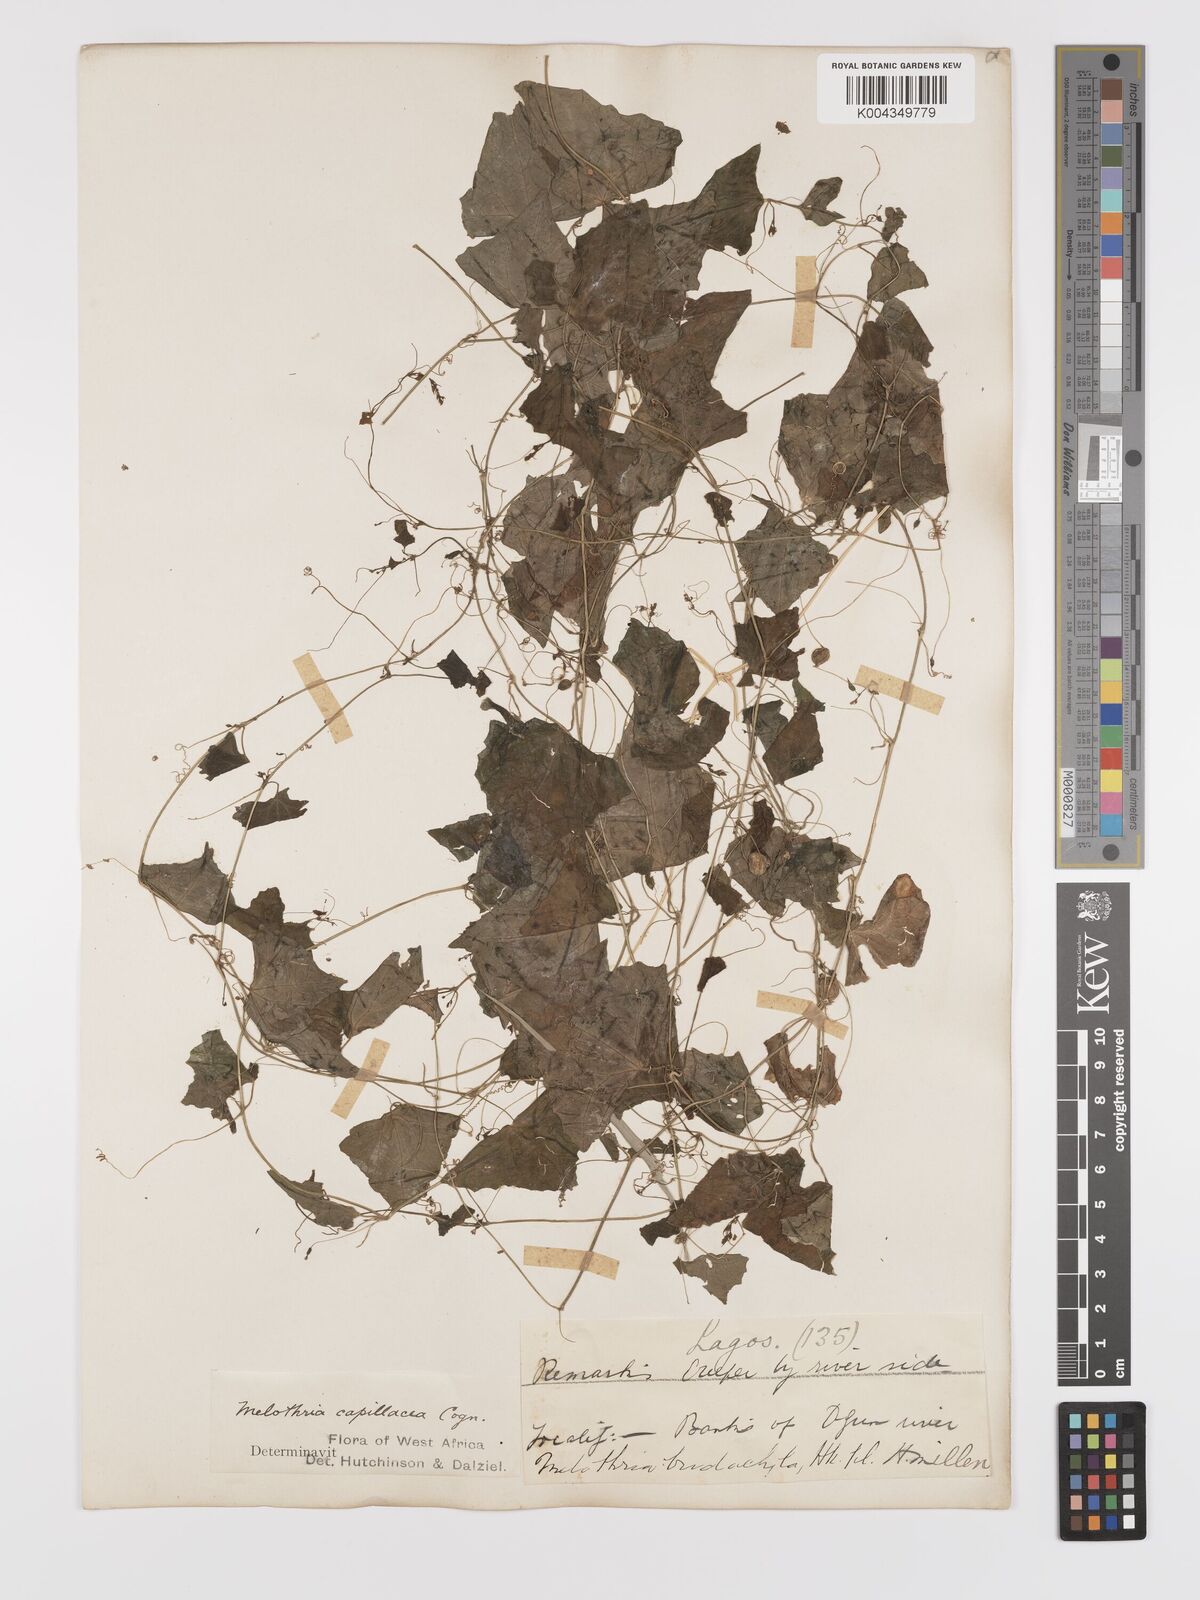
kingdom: Plantae
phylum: Tracheophyta
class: Magnoliopsida
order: Cucurbitales
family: Cucurbitaceae
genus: Zehneria
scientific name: Zehneria capillacea
